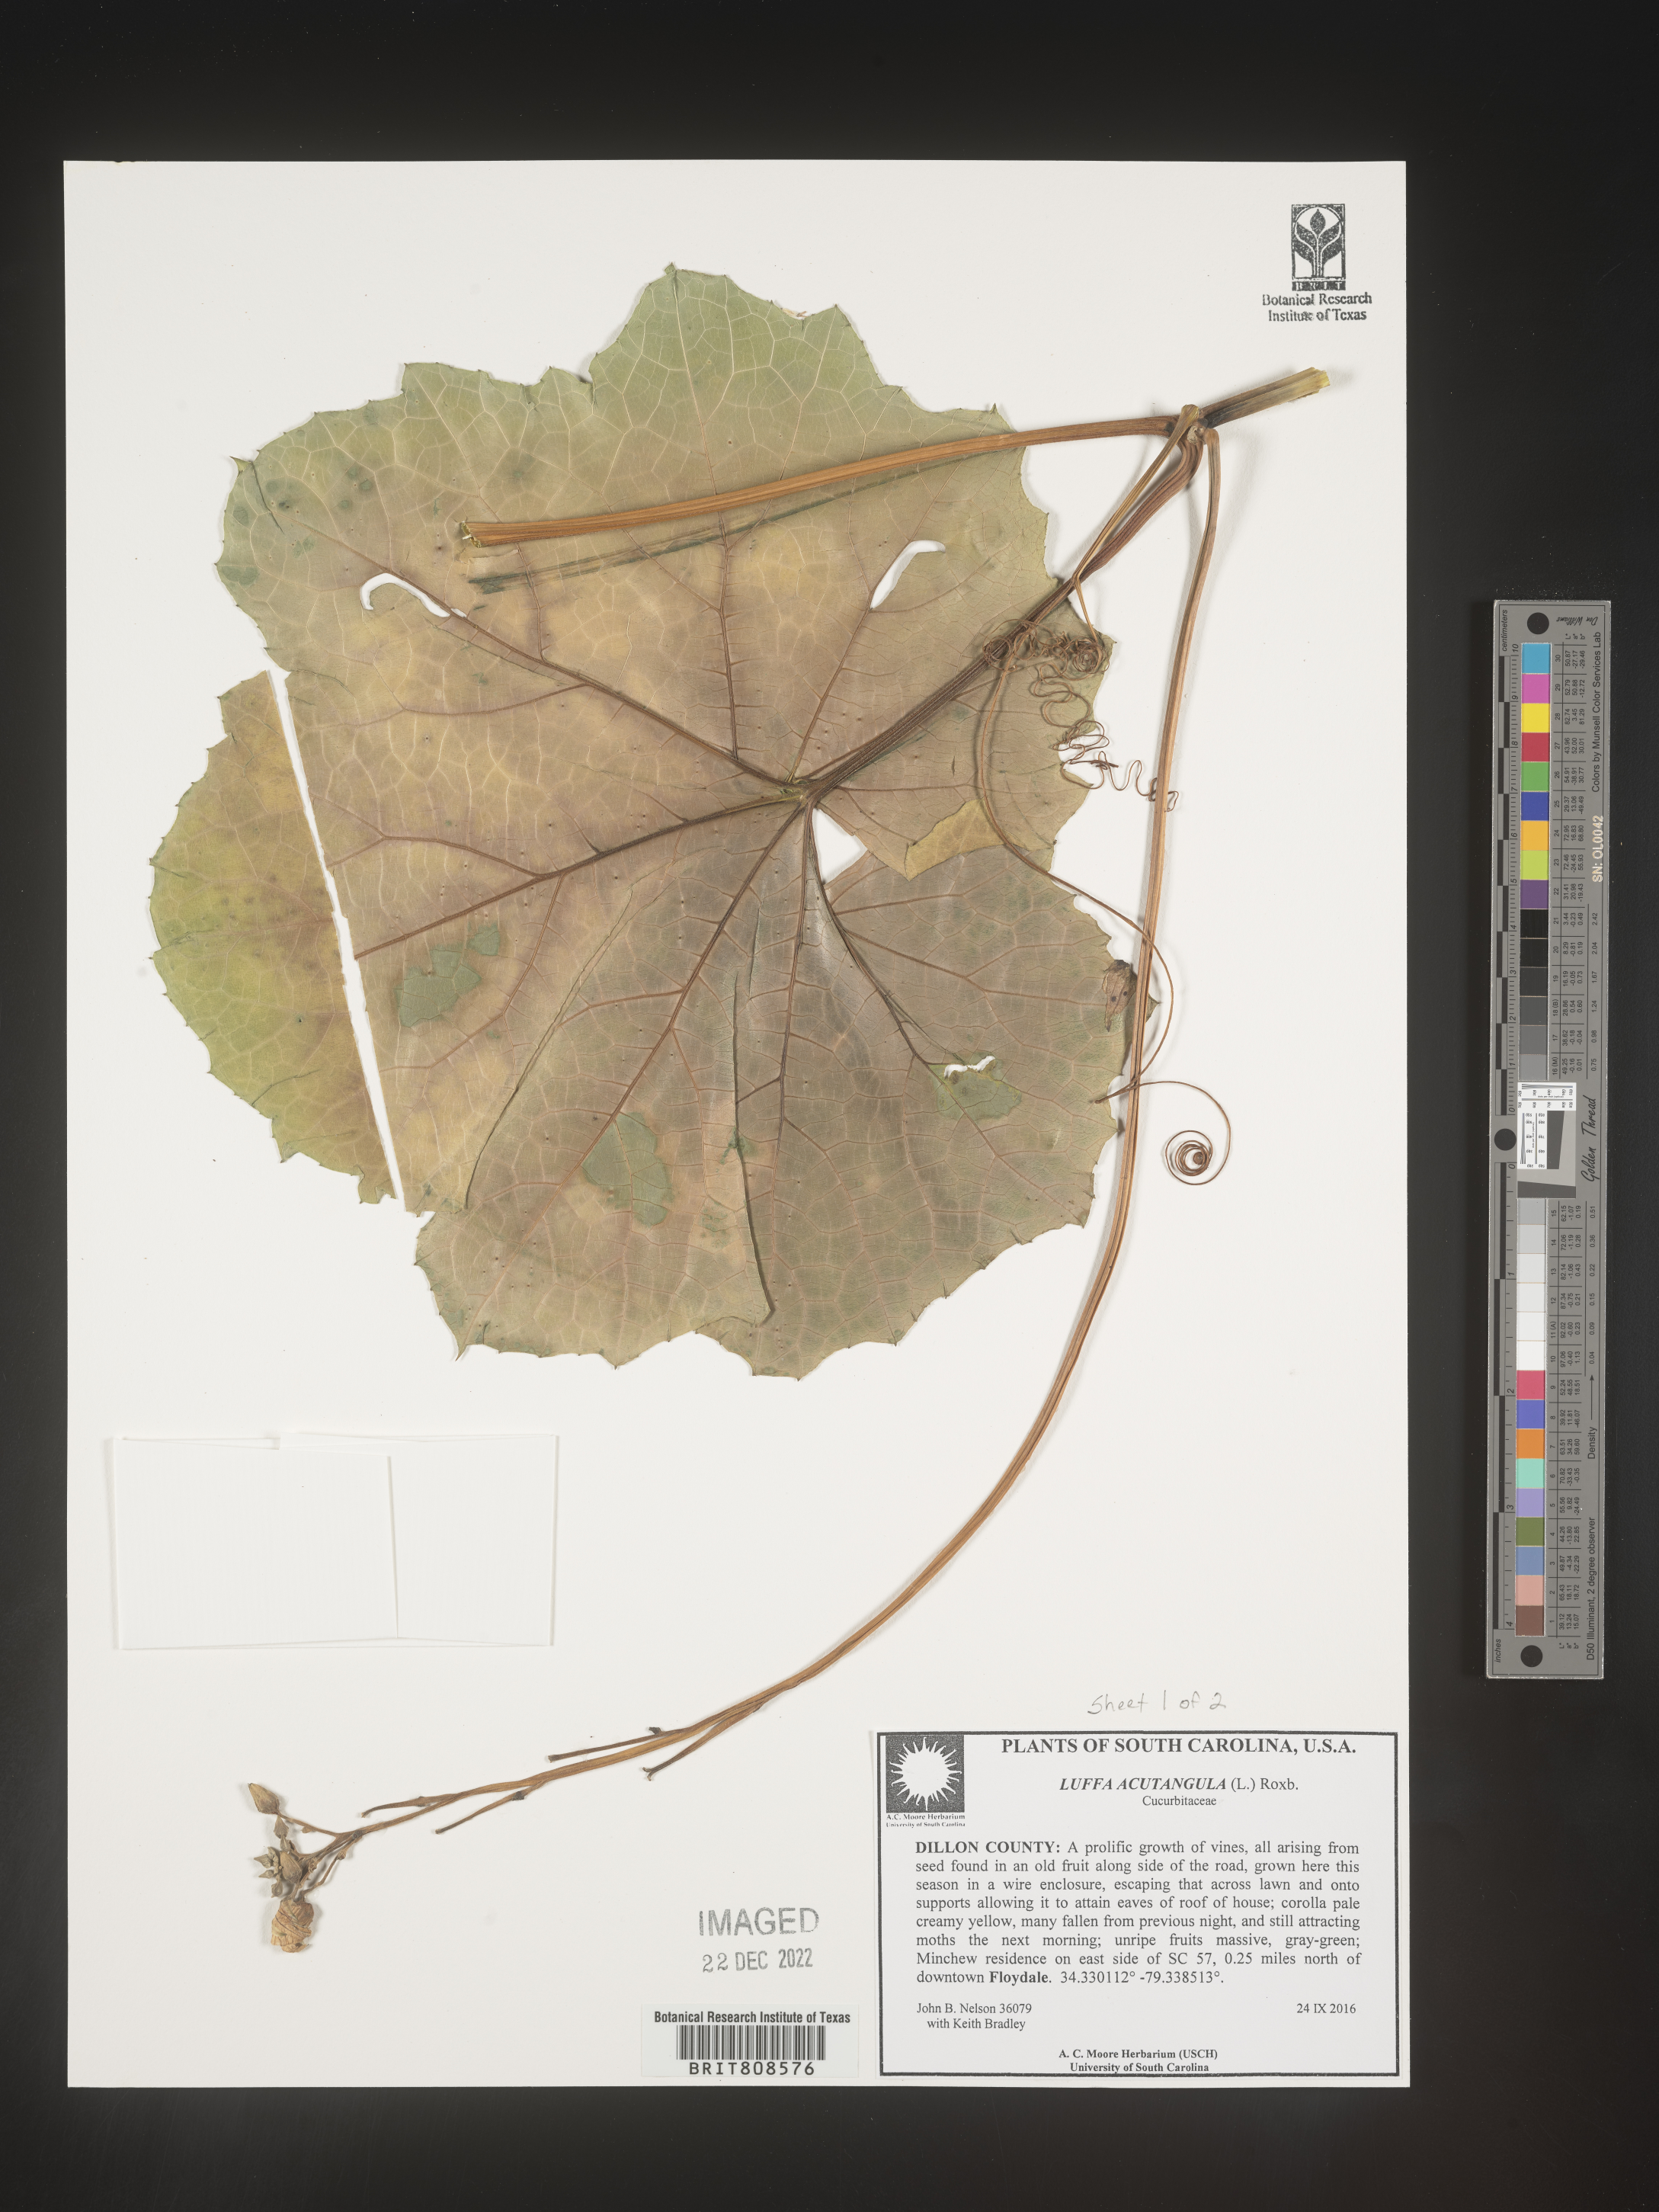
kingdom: Plantae
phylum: Tracheophyta
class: Magnoliopsida
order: Cucurbitales
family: Cucurbitaceae
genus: Luffa
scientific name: Luffa acutangula
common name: Sinkwa towelsponge
